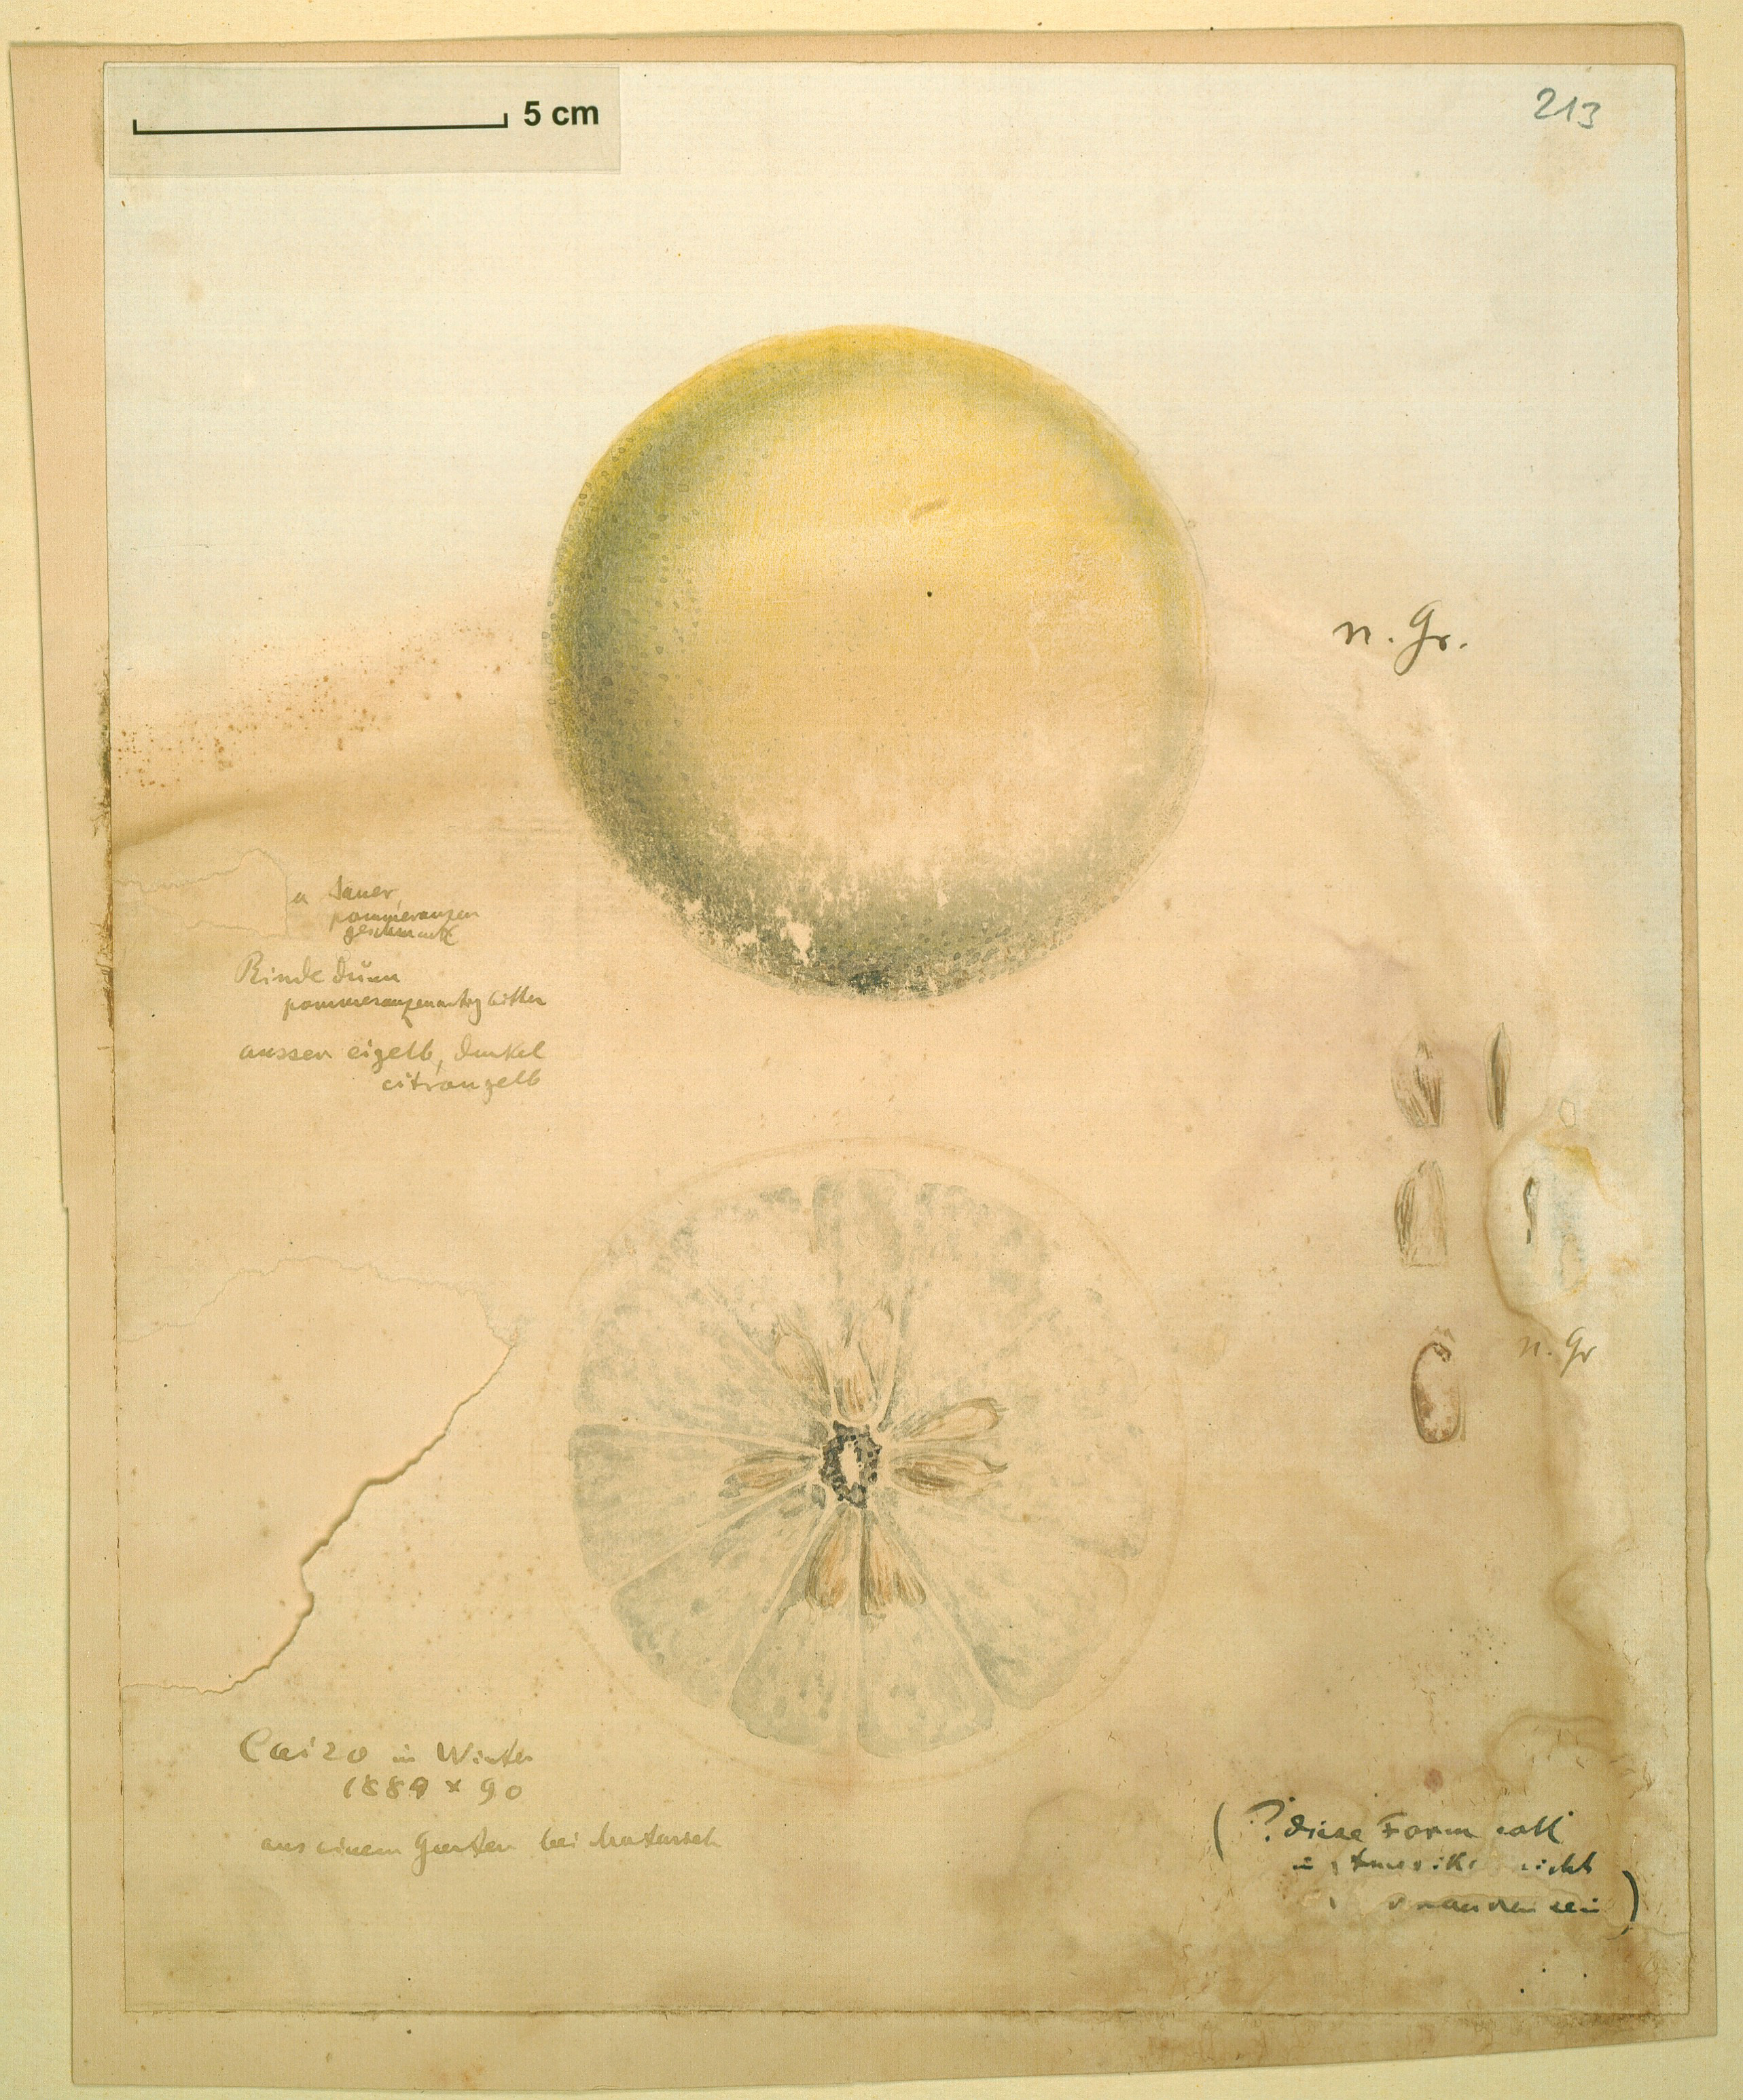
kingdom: Plantae
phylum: Tracheophyta
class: Magnoliopsida
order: Sapindales
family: Rutaceae
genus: Citrus
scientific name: Citrus
